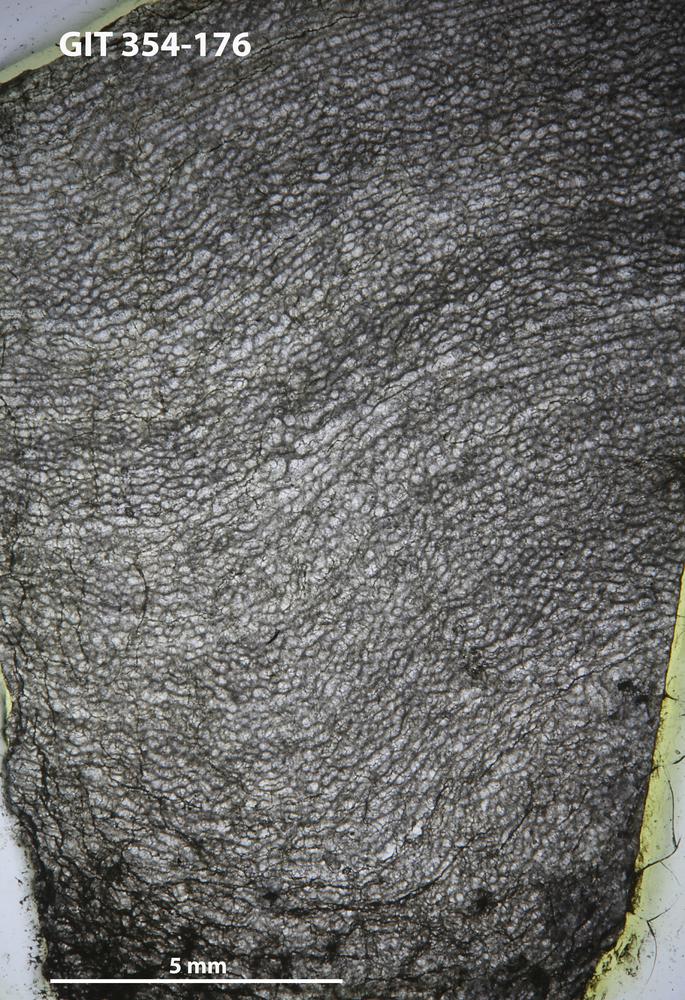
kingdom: Animalia
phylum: Porifera
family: Clathrodictyidae
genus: Clathrodictyon
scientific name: Clathrodictyon boreale
